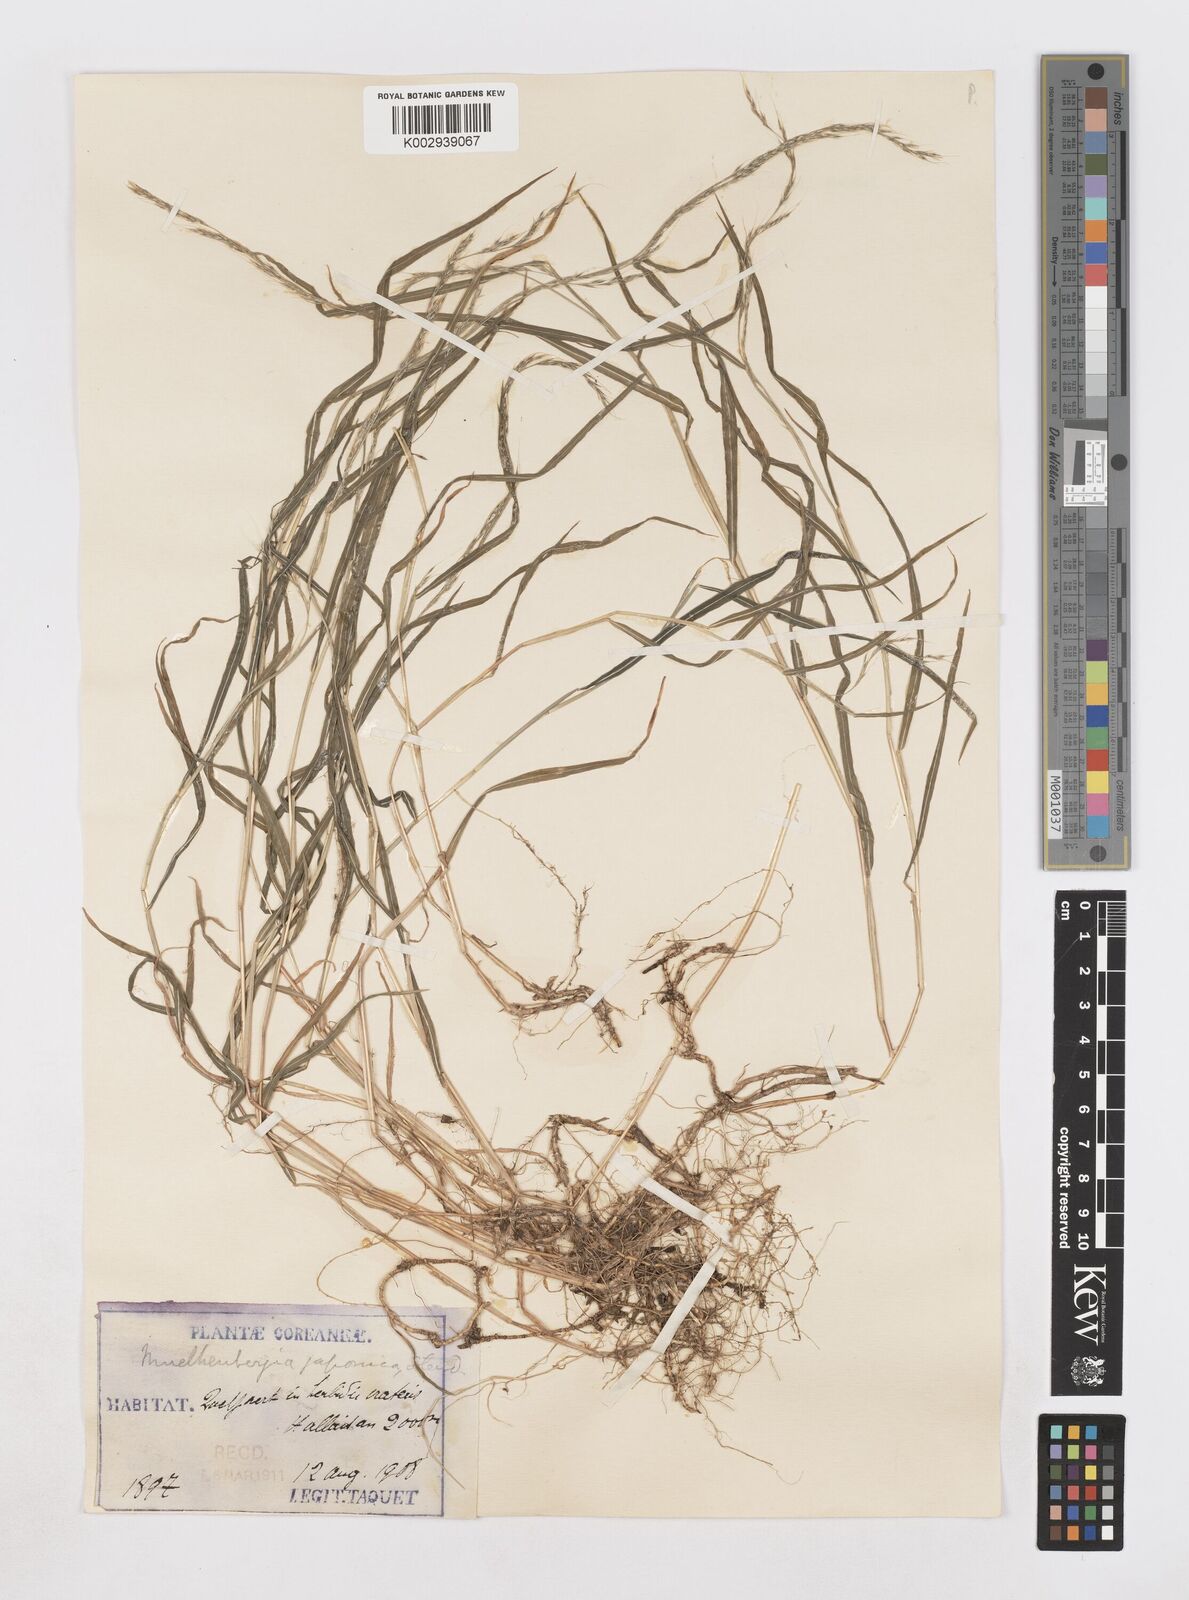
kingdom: Plantae
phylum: Tracheophyta
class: Liliopsida
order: Poales
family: Poaceae
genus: Muhlenbergia
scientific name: Muhlenbergia hakonensis
